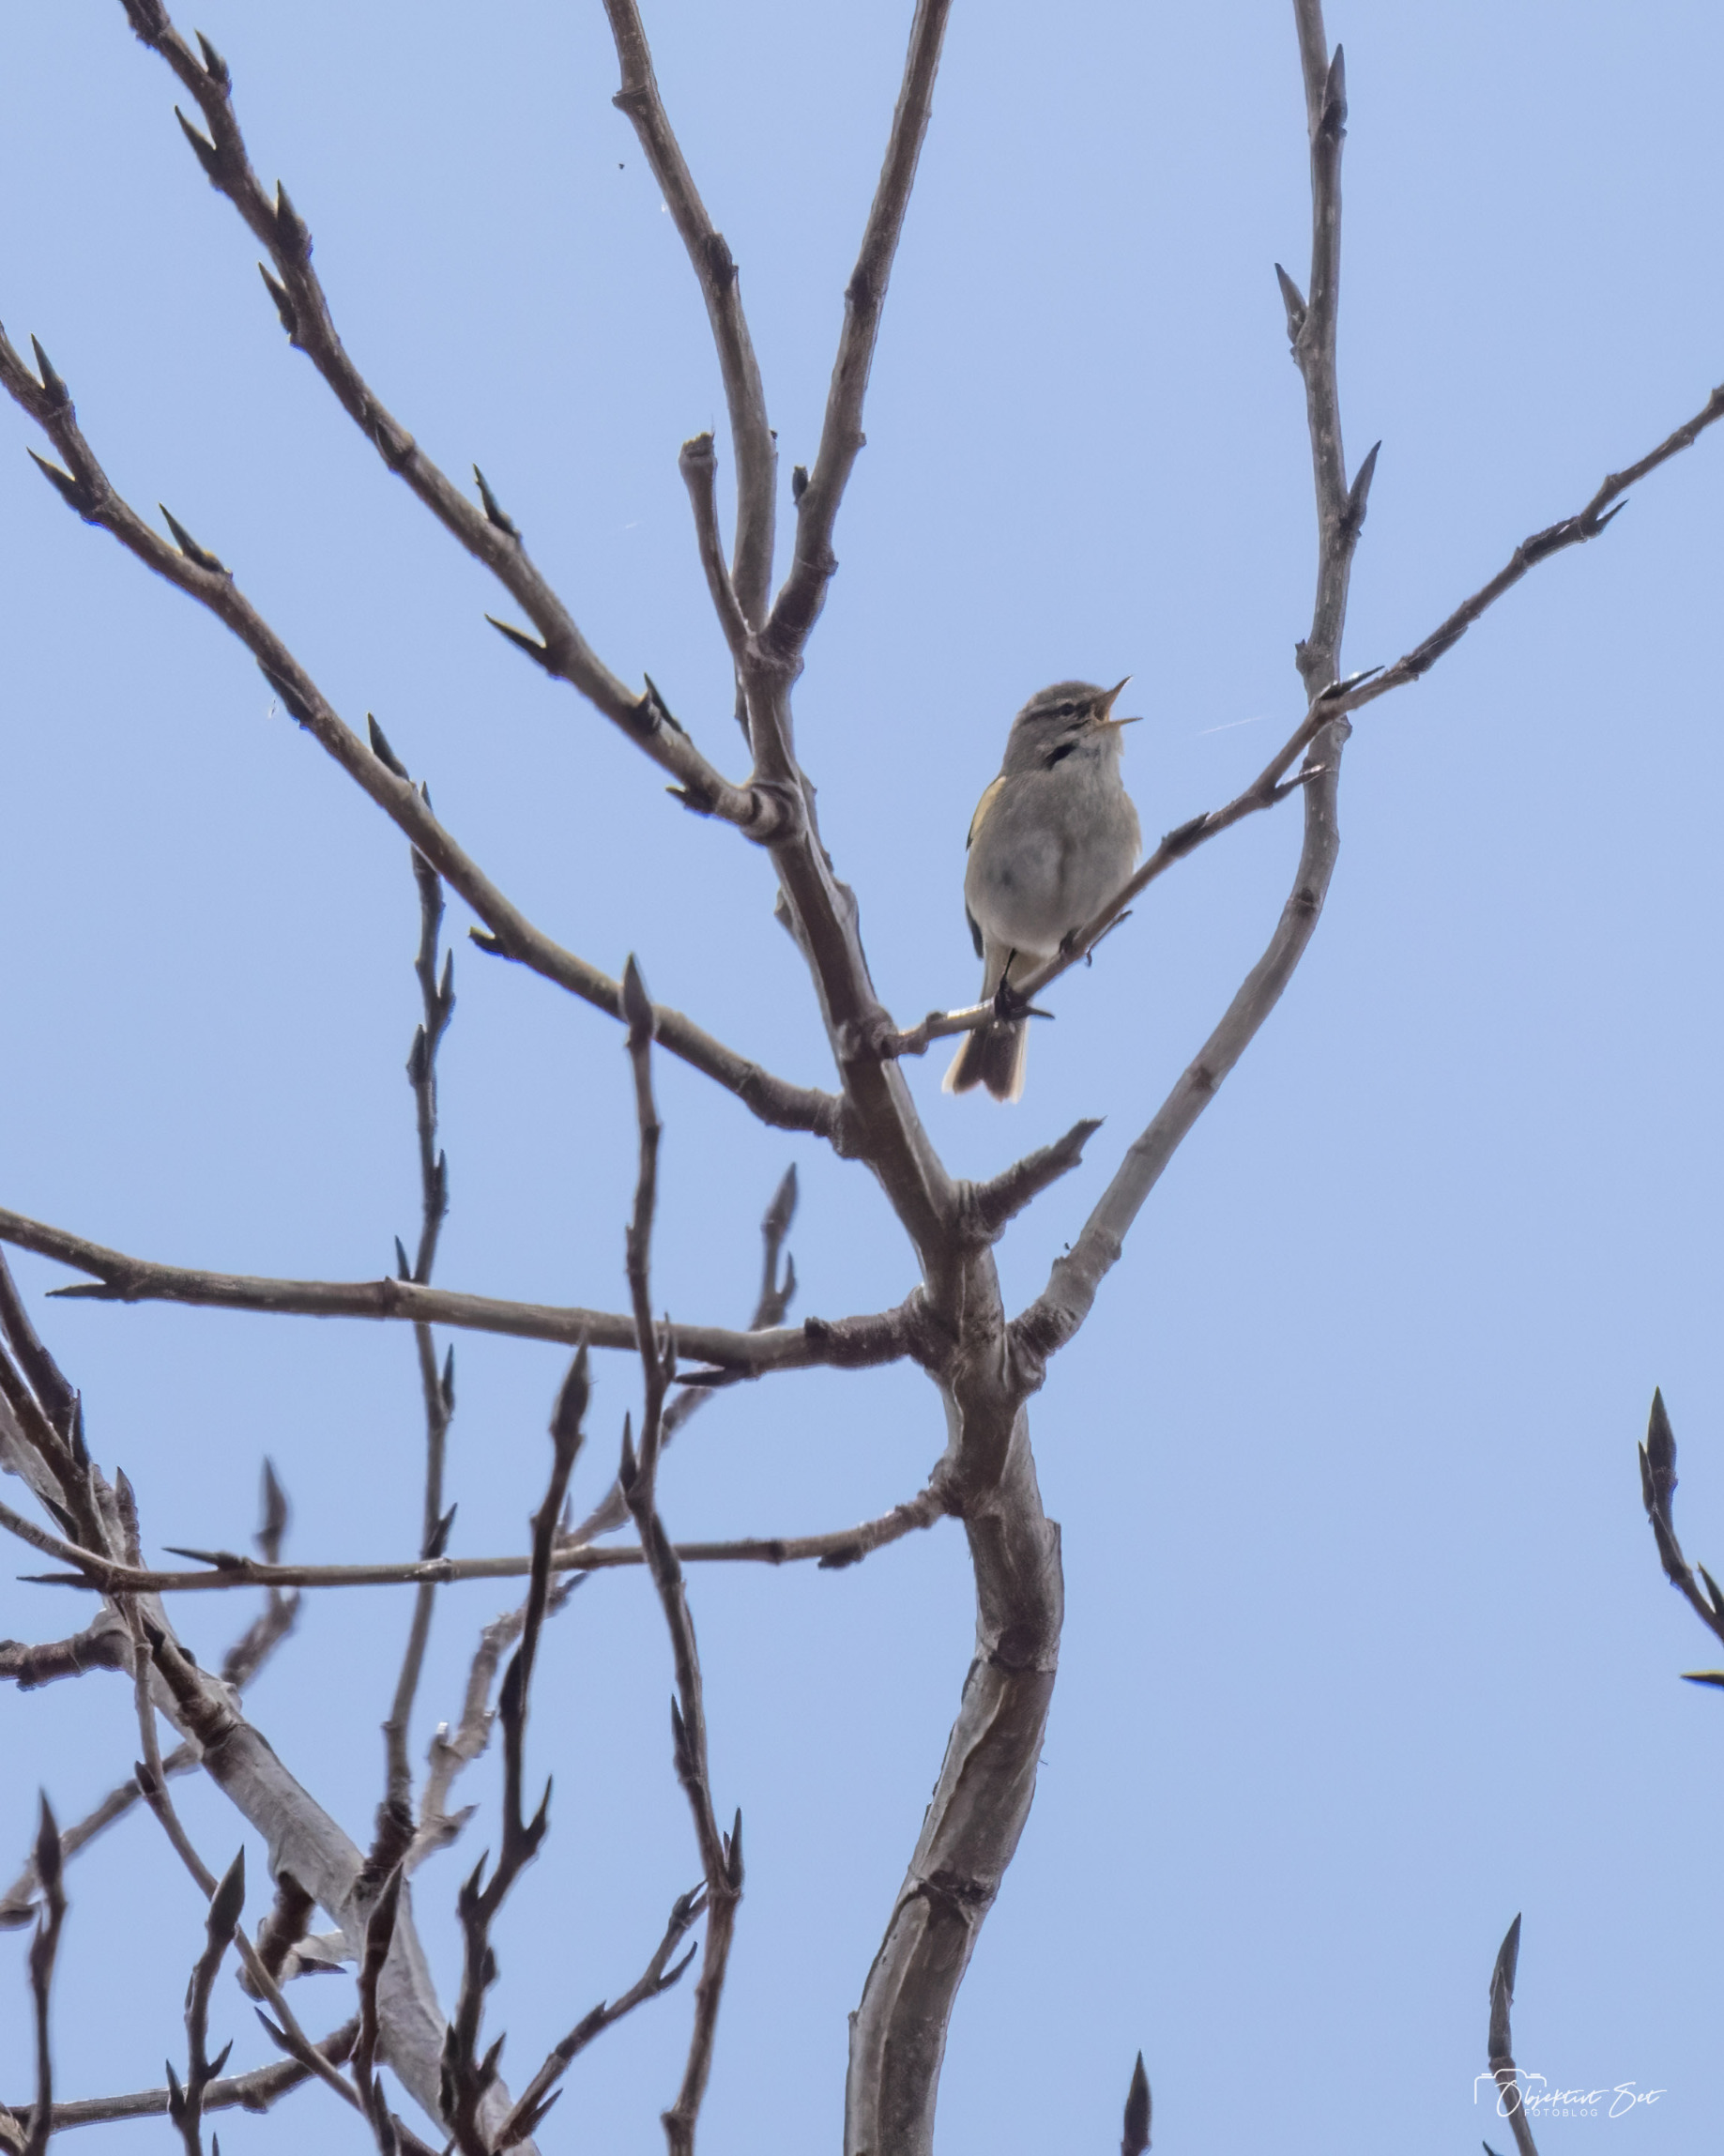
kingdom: Animalia
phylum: Chordata
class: Aves
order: Passeriformes
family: Phylloscopidae
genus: Phylloscopus
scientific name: Phylloscopus collybita
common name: Gransanger
